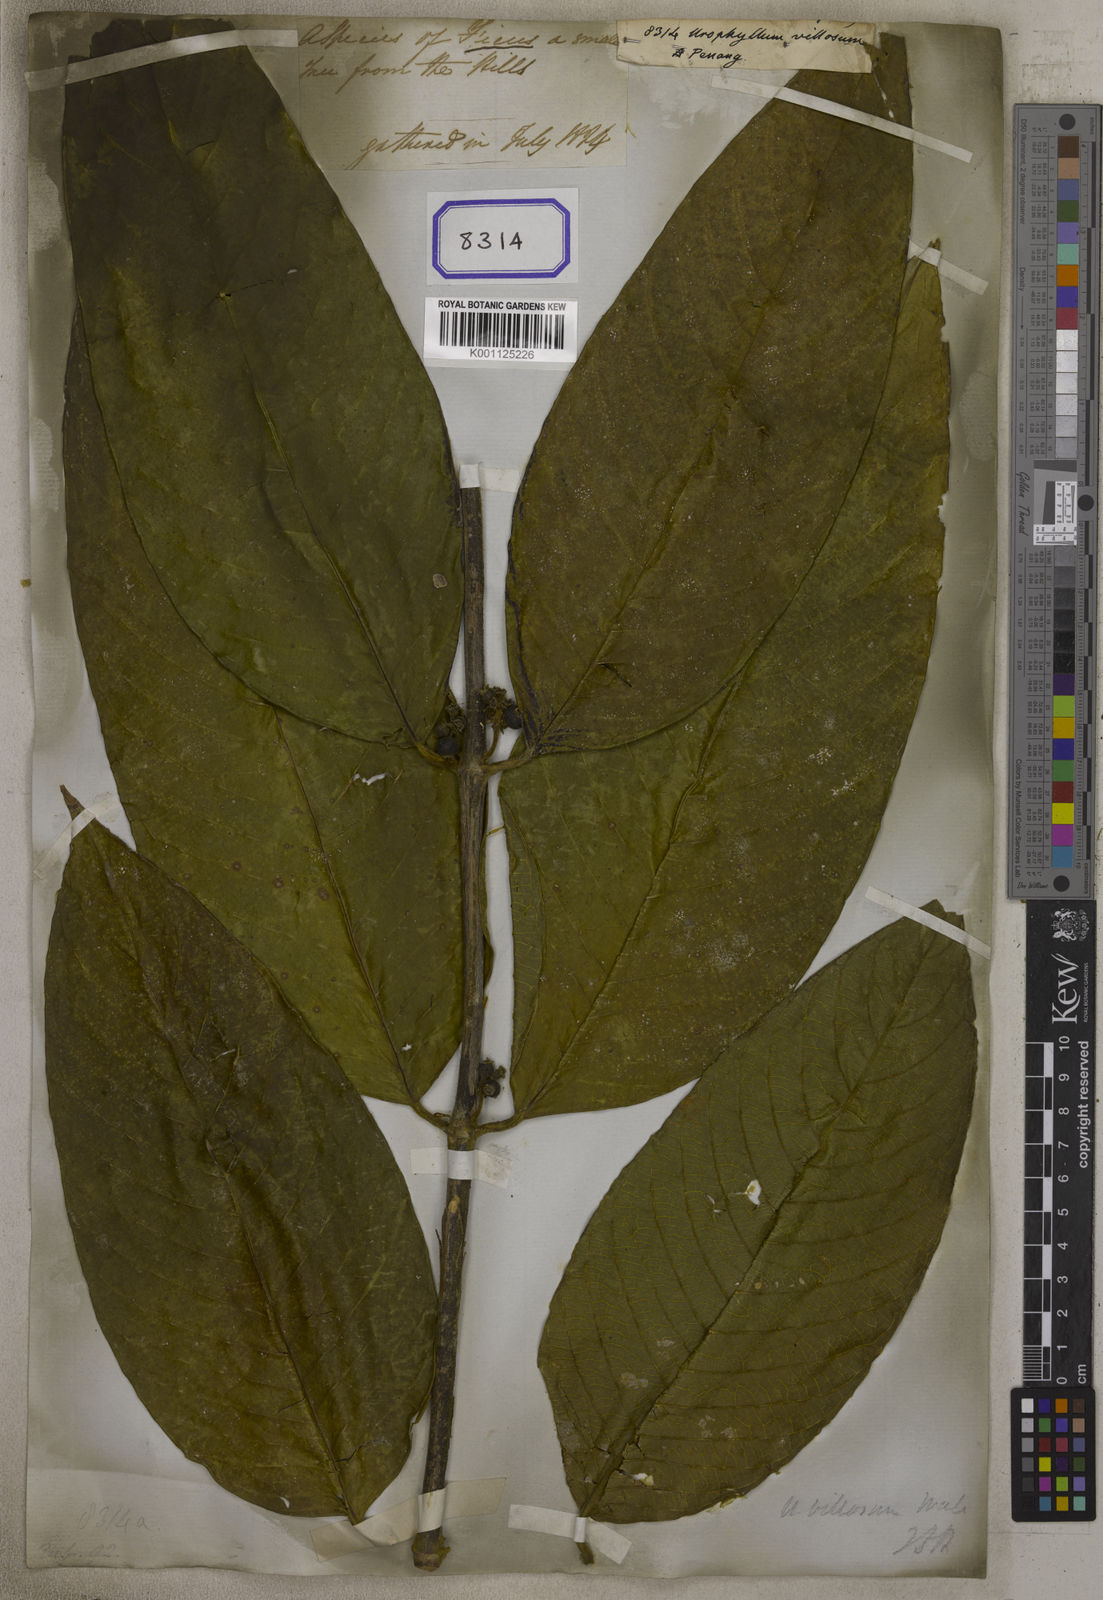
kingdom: Plantae
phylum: Tracheophyta
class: Magnoliopsida
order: Gentianales
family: Rubiaceae
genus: Urophyllum
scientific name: Urophyllum villosum
